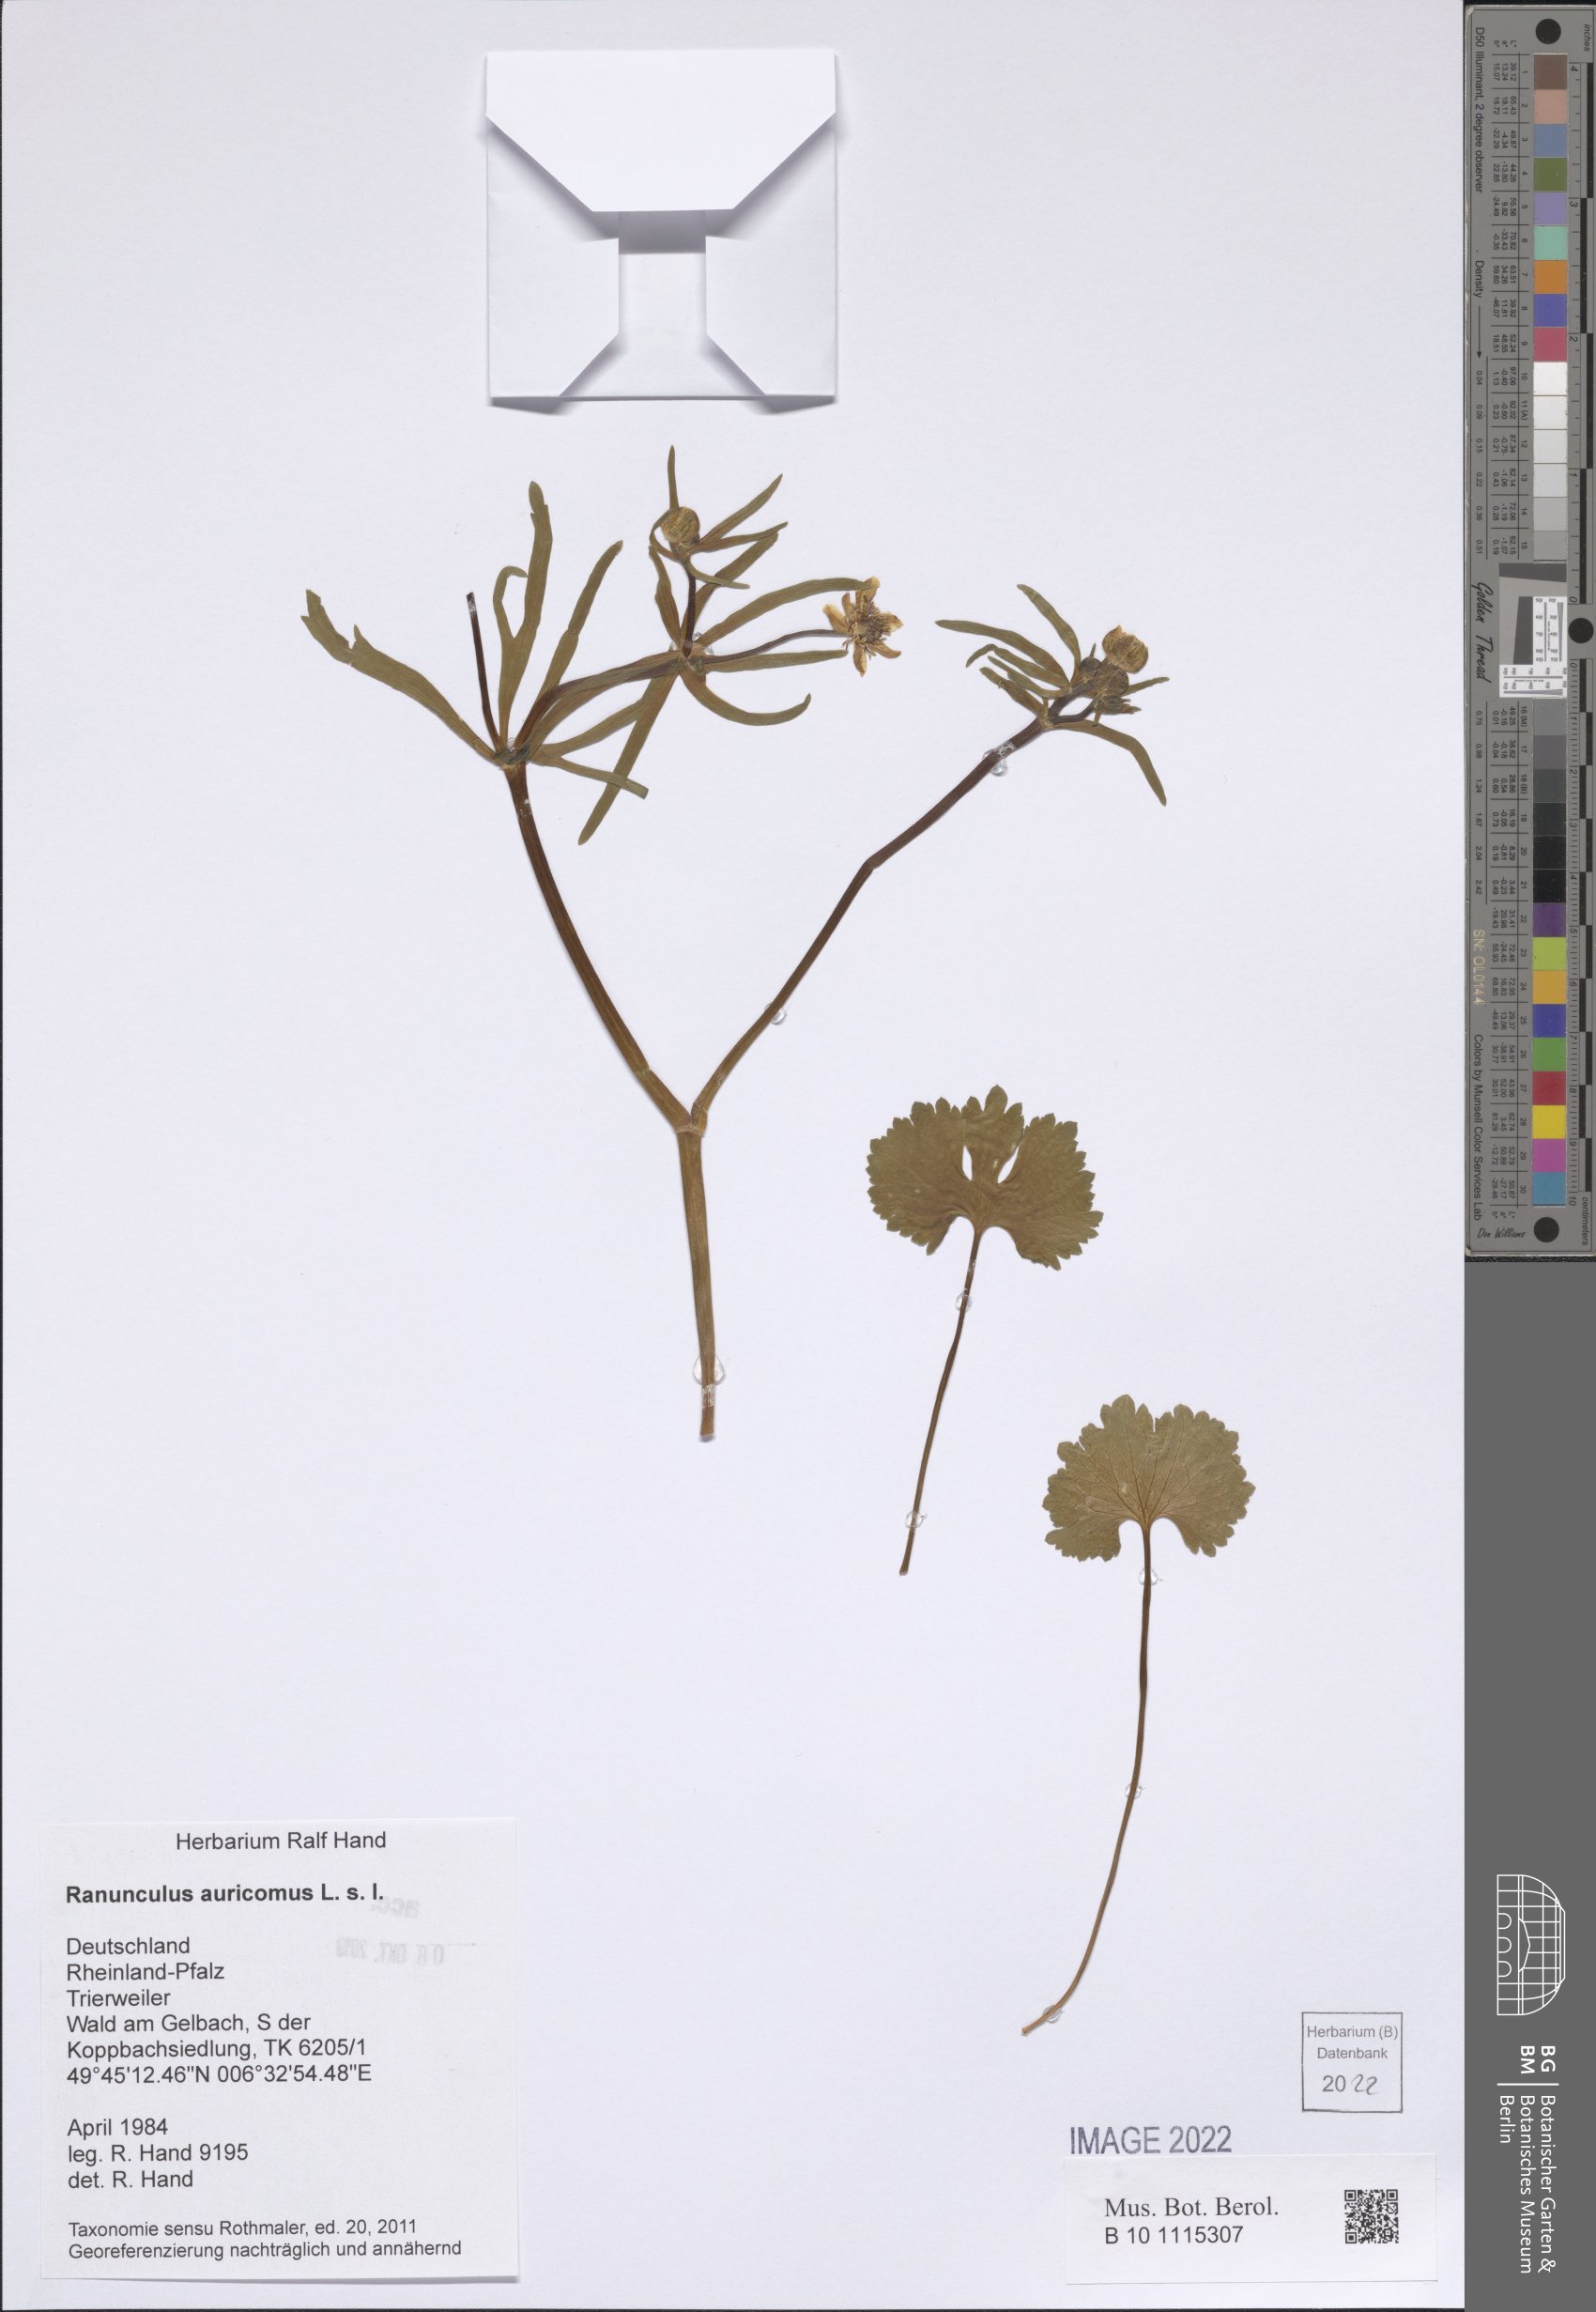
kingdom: Plantae
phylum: Tracheophyta
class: Magnoliopsida
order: Ranunculales
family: Ranunculaceae
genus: Ranunculus
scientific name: Ranunculus auricomus
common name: Goldilocks buttercup
